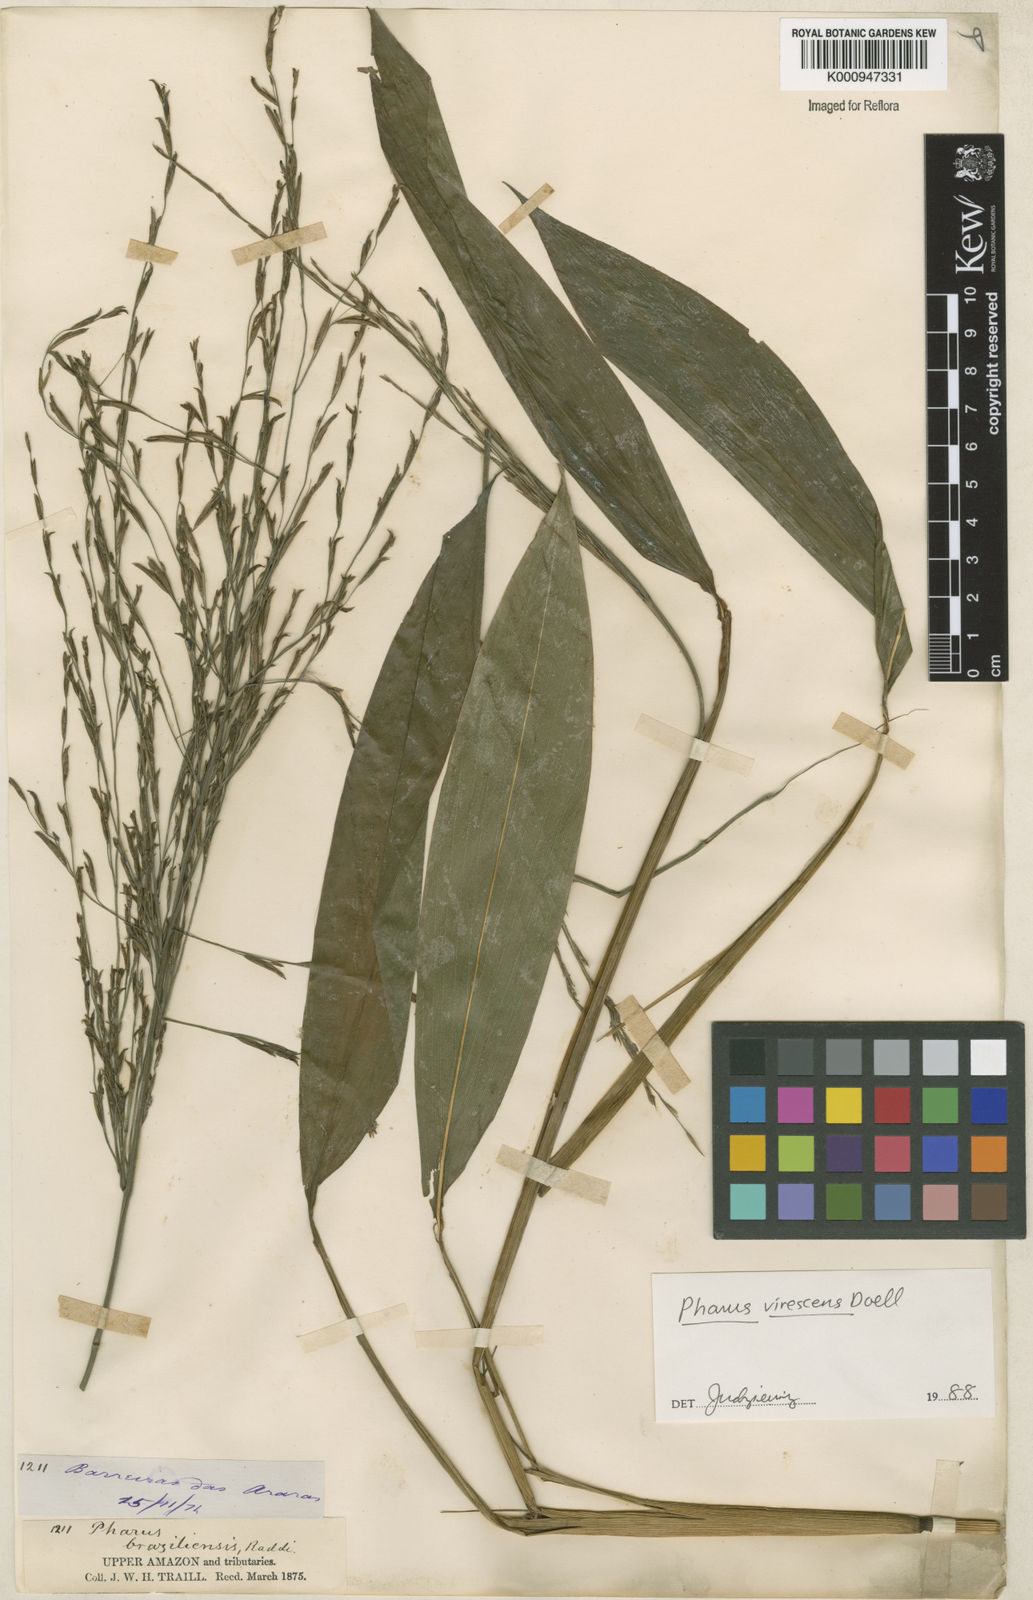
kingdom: Plantae
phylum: Tracheophyta
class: Liliopsida
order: Poales
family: Poaceae
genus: Pharus
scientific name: Pharus
